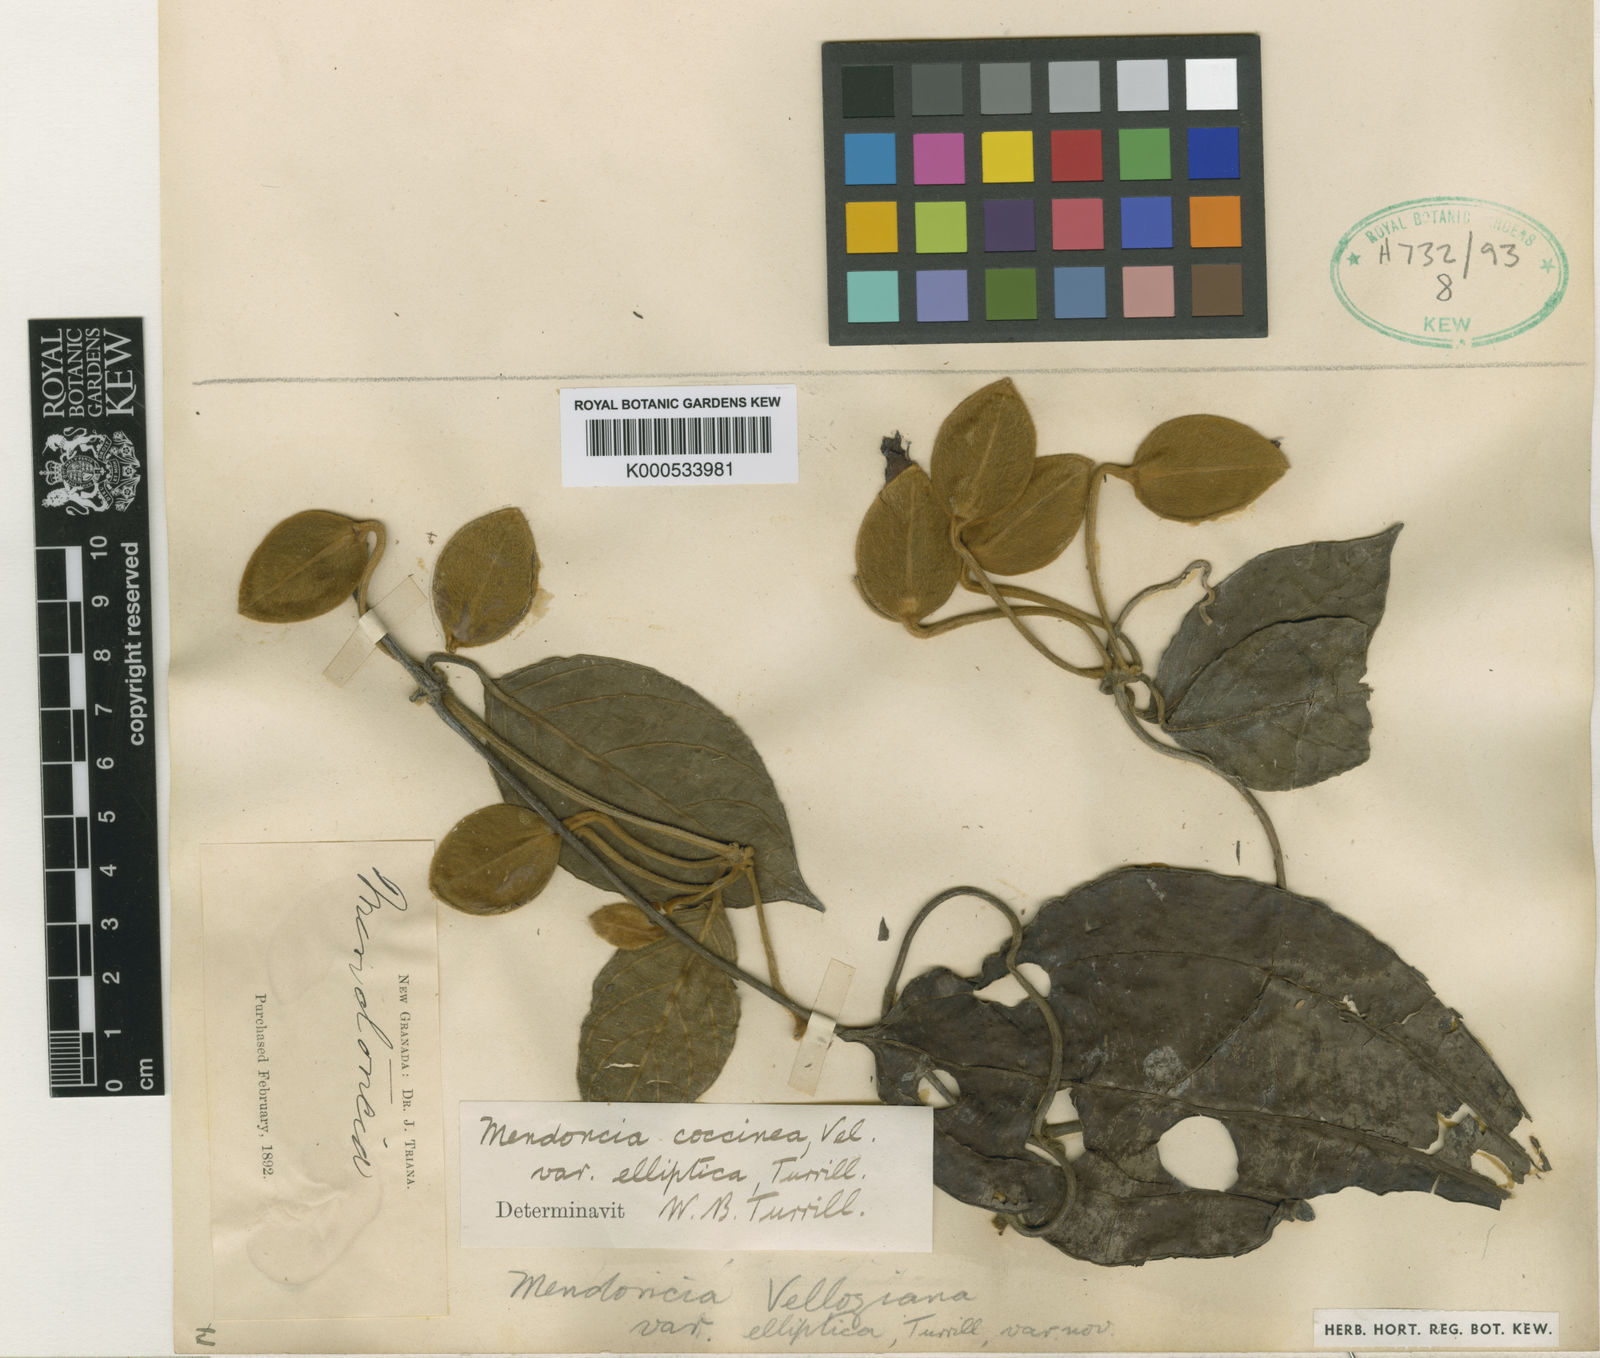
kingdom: Plantae
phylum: Tracheophyta
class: Magnoliopsida
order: Lamiales
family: Acanthaceae
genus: Mendoncia
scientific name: Mendoncia coccinea
